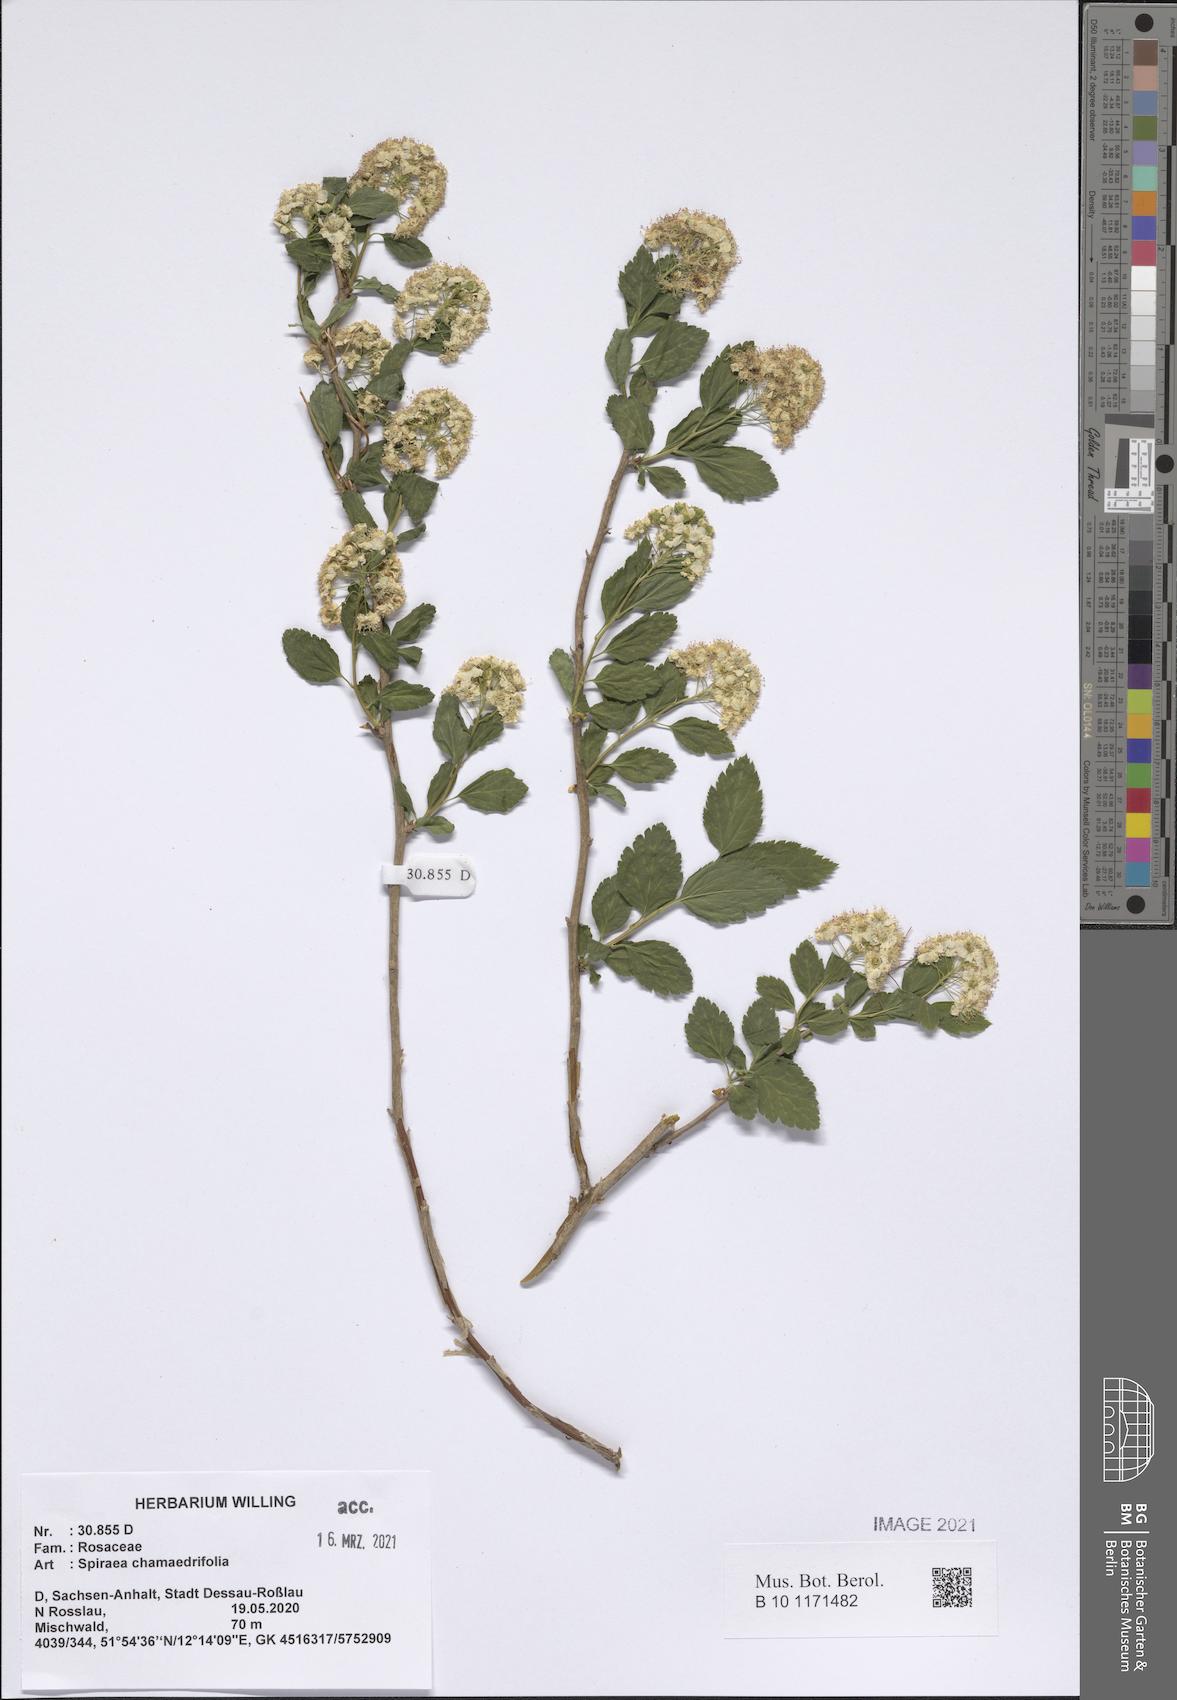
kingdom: Plantae
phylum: Tracheophyta
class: Magnoliopsida
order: Rosales
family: Rosaceae
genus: Spiraea
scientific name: Spiraea chamaedryfolia
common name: Elm-leaved spiraea
